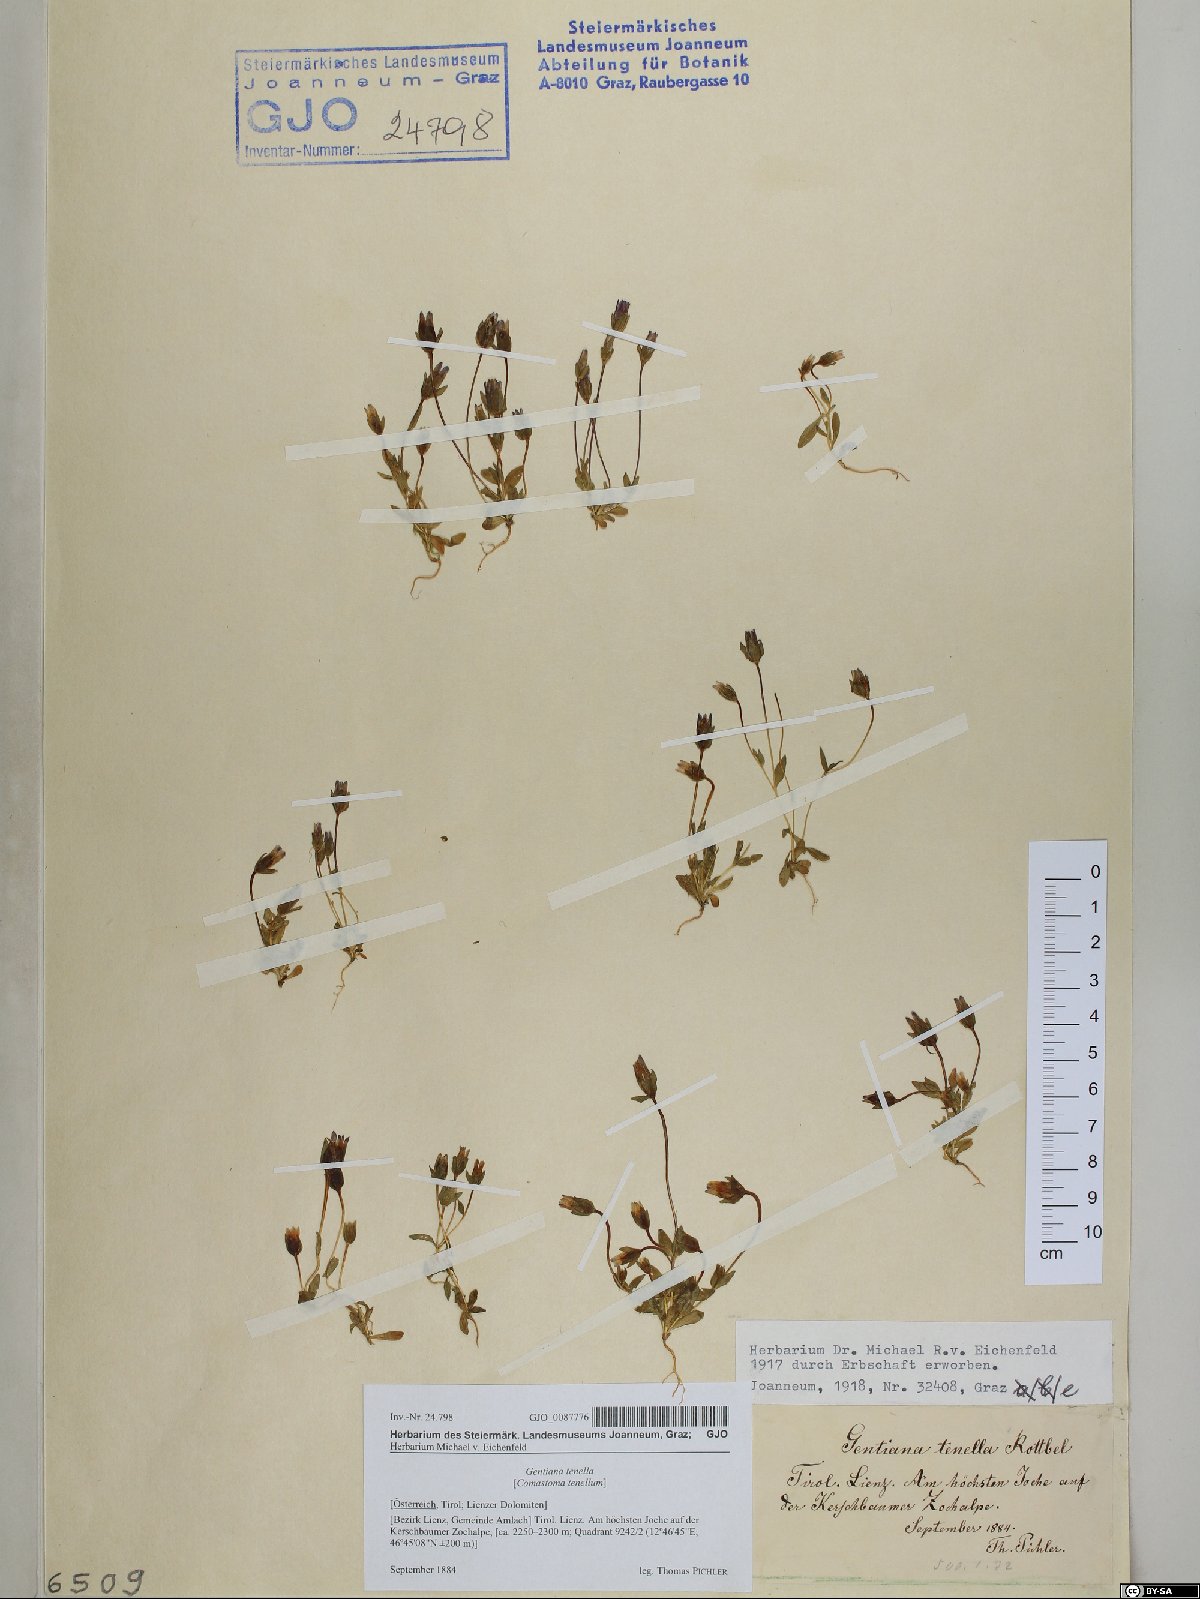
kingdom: Plantae
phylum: Tracheophyta
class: Magnoliopsida
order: Gentianales
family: Gentianaceae
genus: Comastoma
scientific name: Comastoma tenellum
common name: Dane's dwarf gentian
